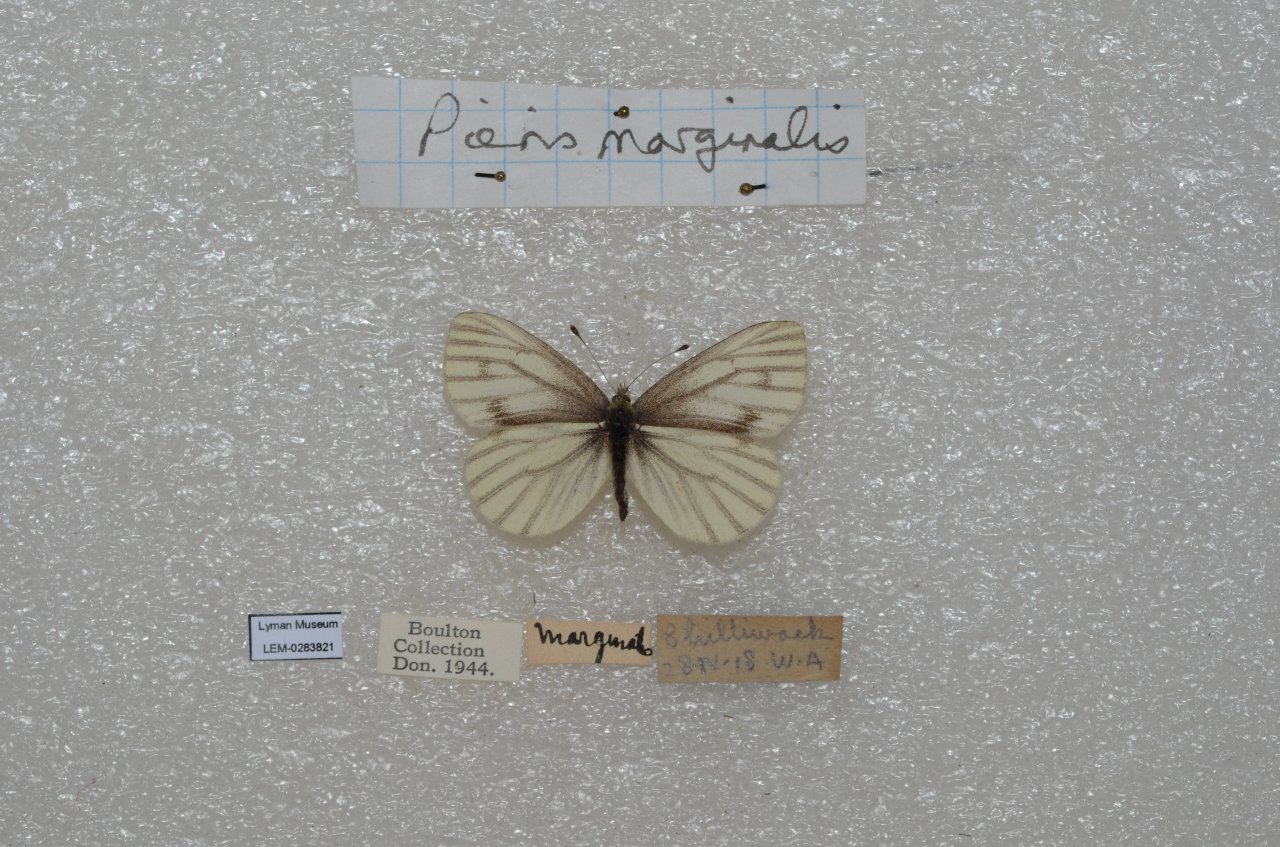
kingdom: Animalia
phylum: Arthropoda
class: Insecta
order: Lepidoptera
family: Pieridae
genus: Pieris
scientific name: Pieris marginalis
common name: Margined White
